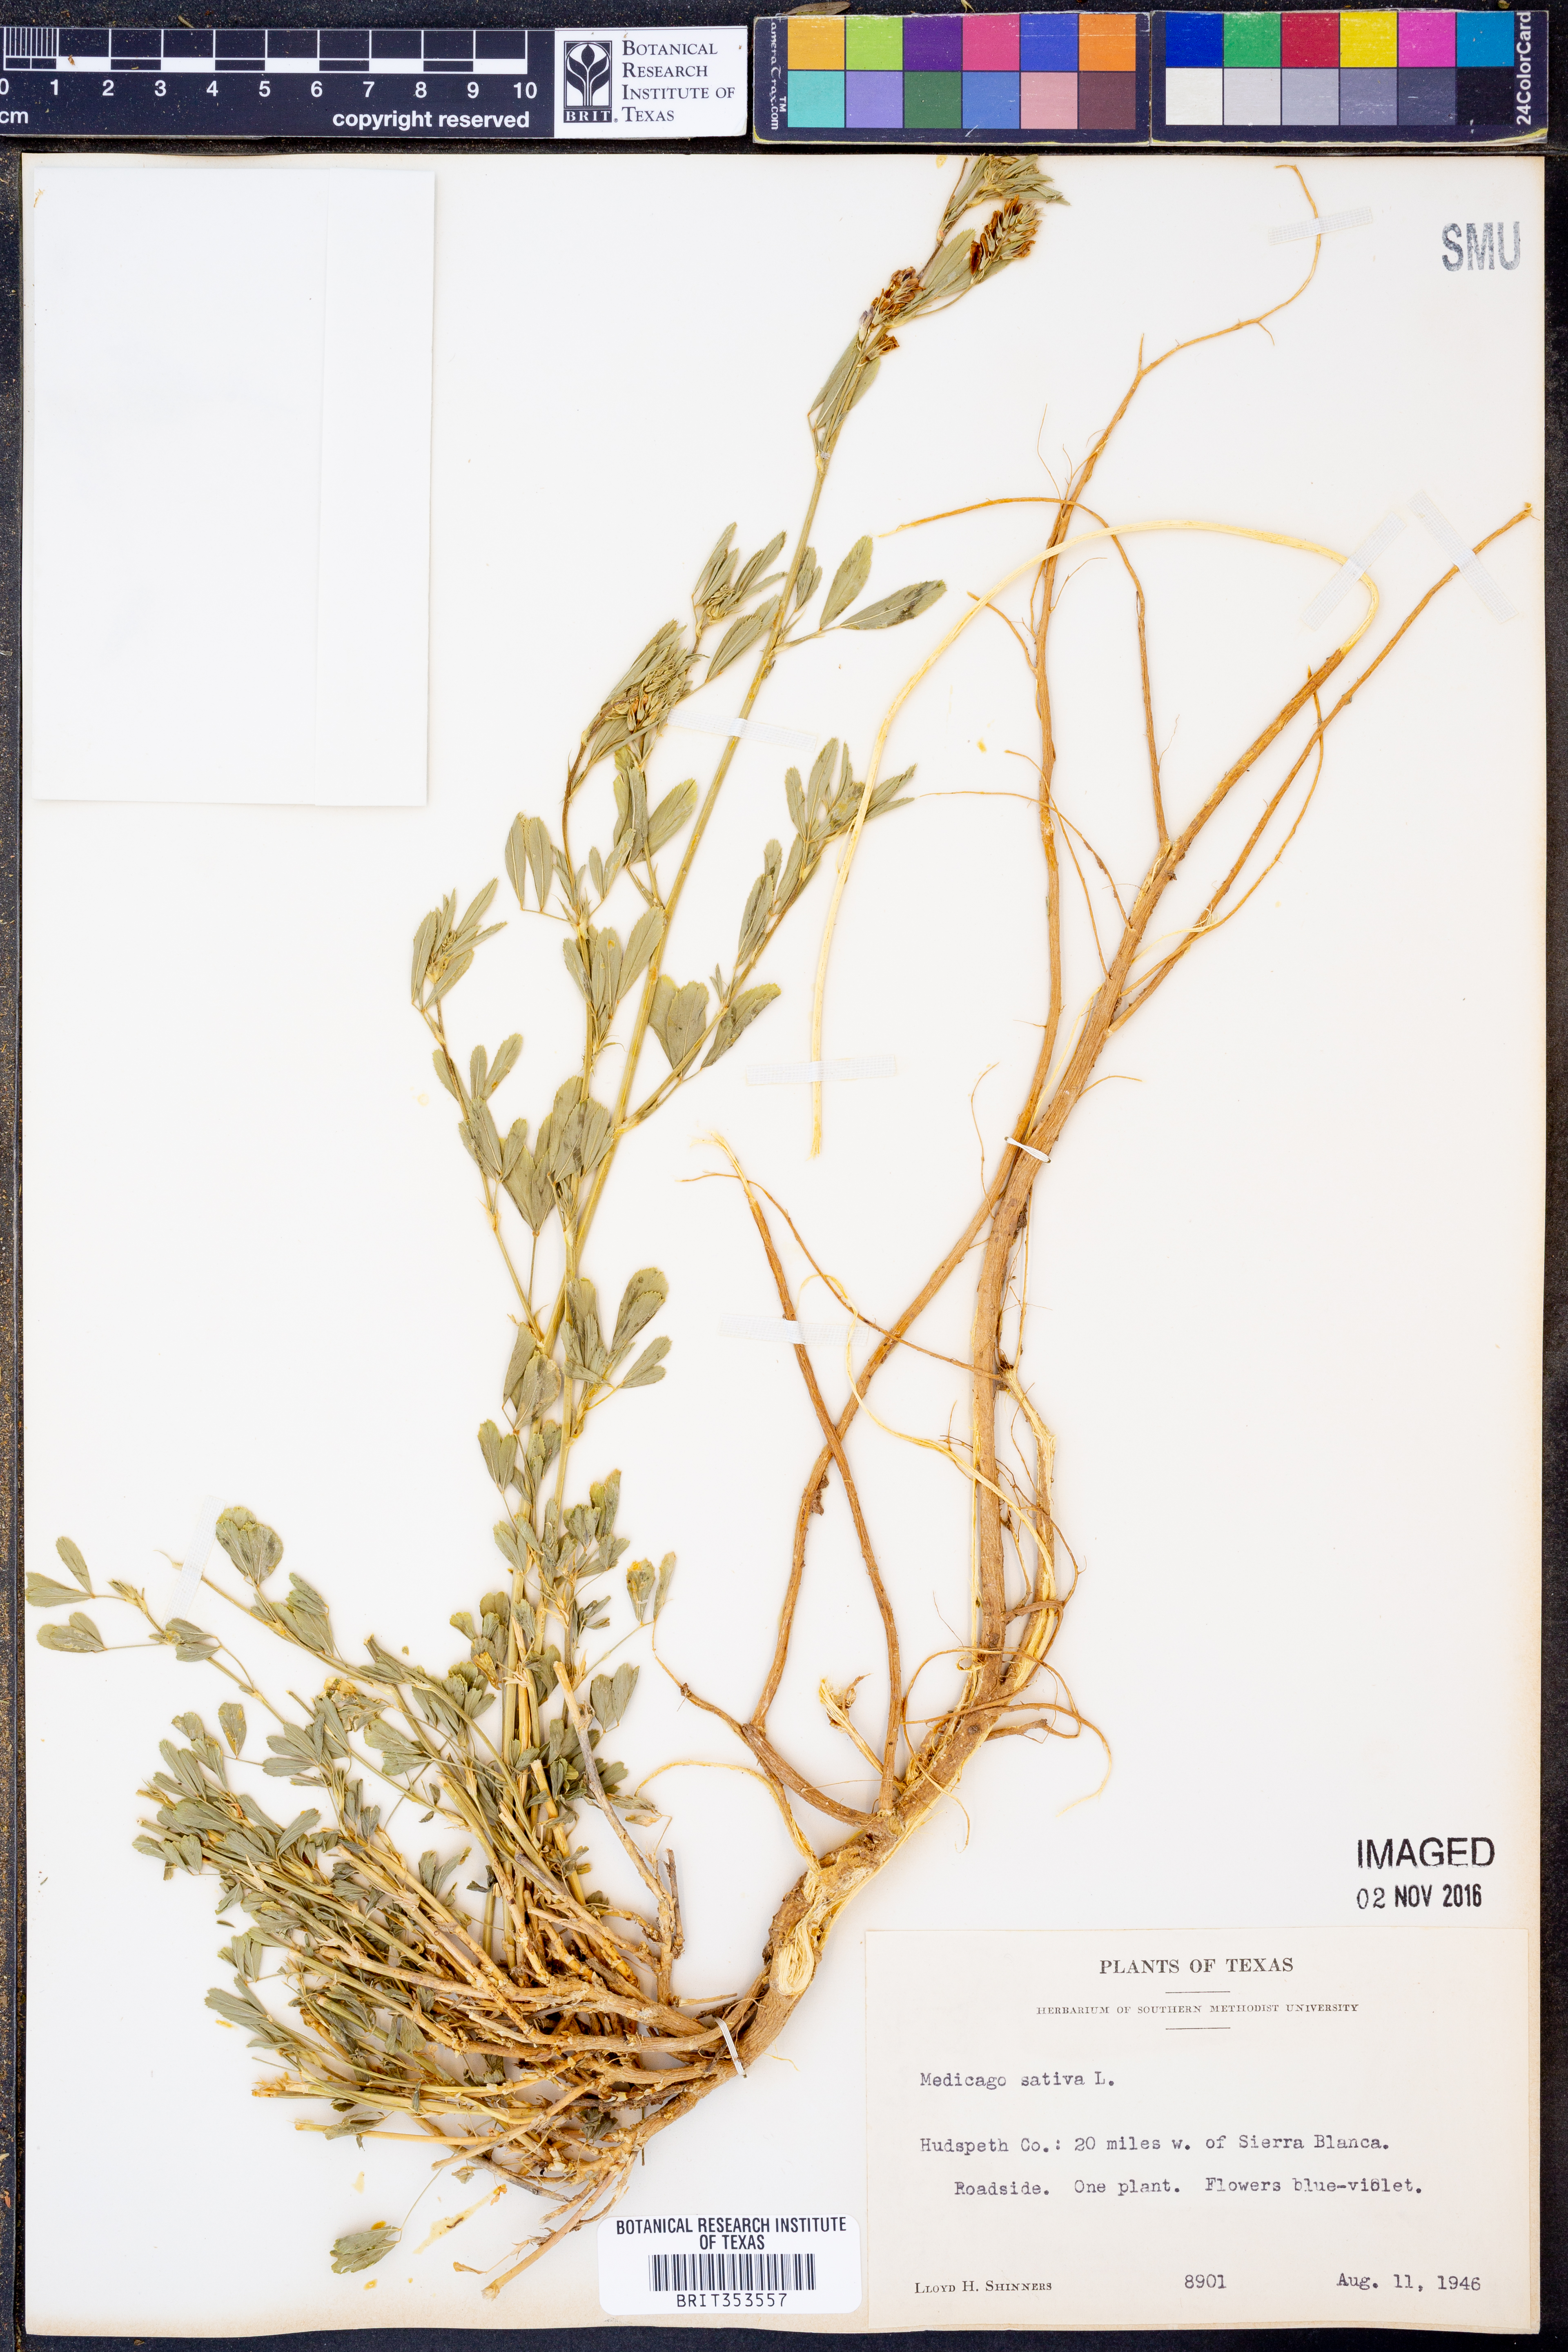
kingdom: Plantae
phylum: Tracheophyta
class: Magnoliopsida
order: Fabales
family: Fabaceae
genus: Medicago
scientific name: Medicago sativa
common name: Alfalfa
